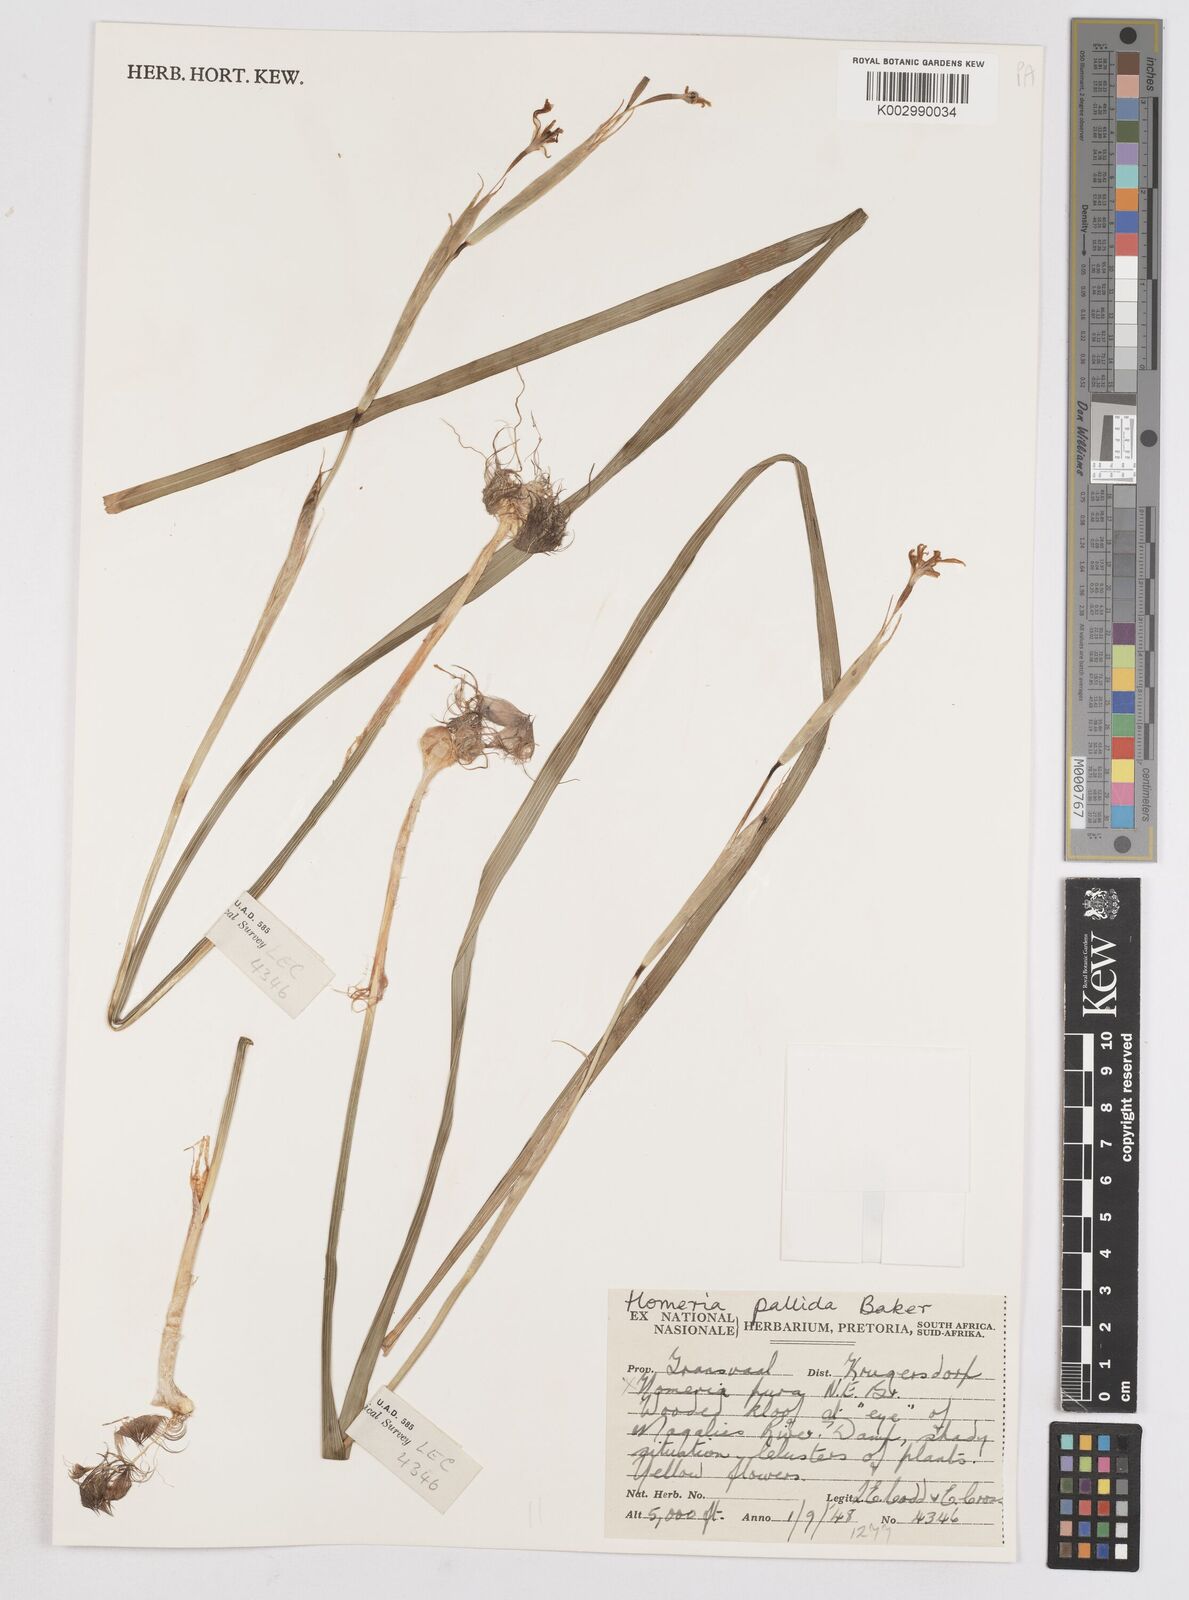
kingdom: Plantae
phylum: Tracheophyta
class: Liliopsida
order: Asparagales
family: Iridaceae
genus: Moraea
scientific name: Moraea pallida
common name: Yellow tulp
